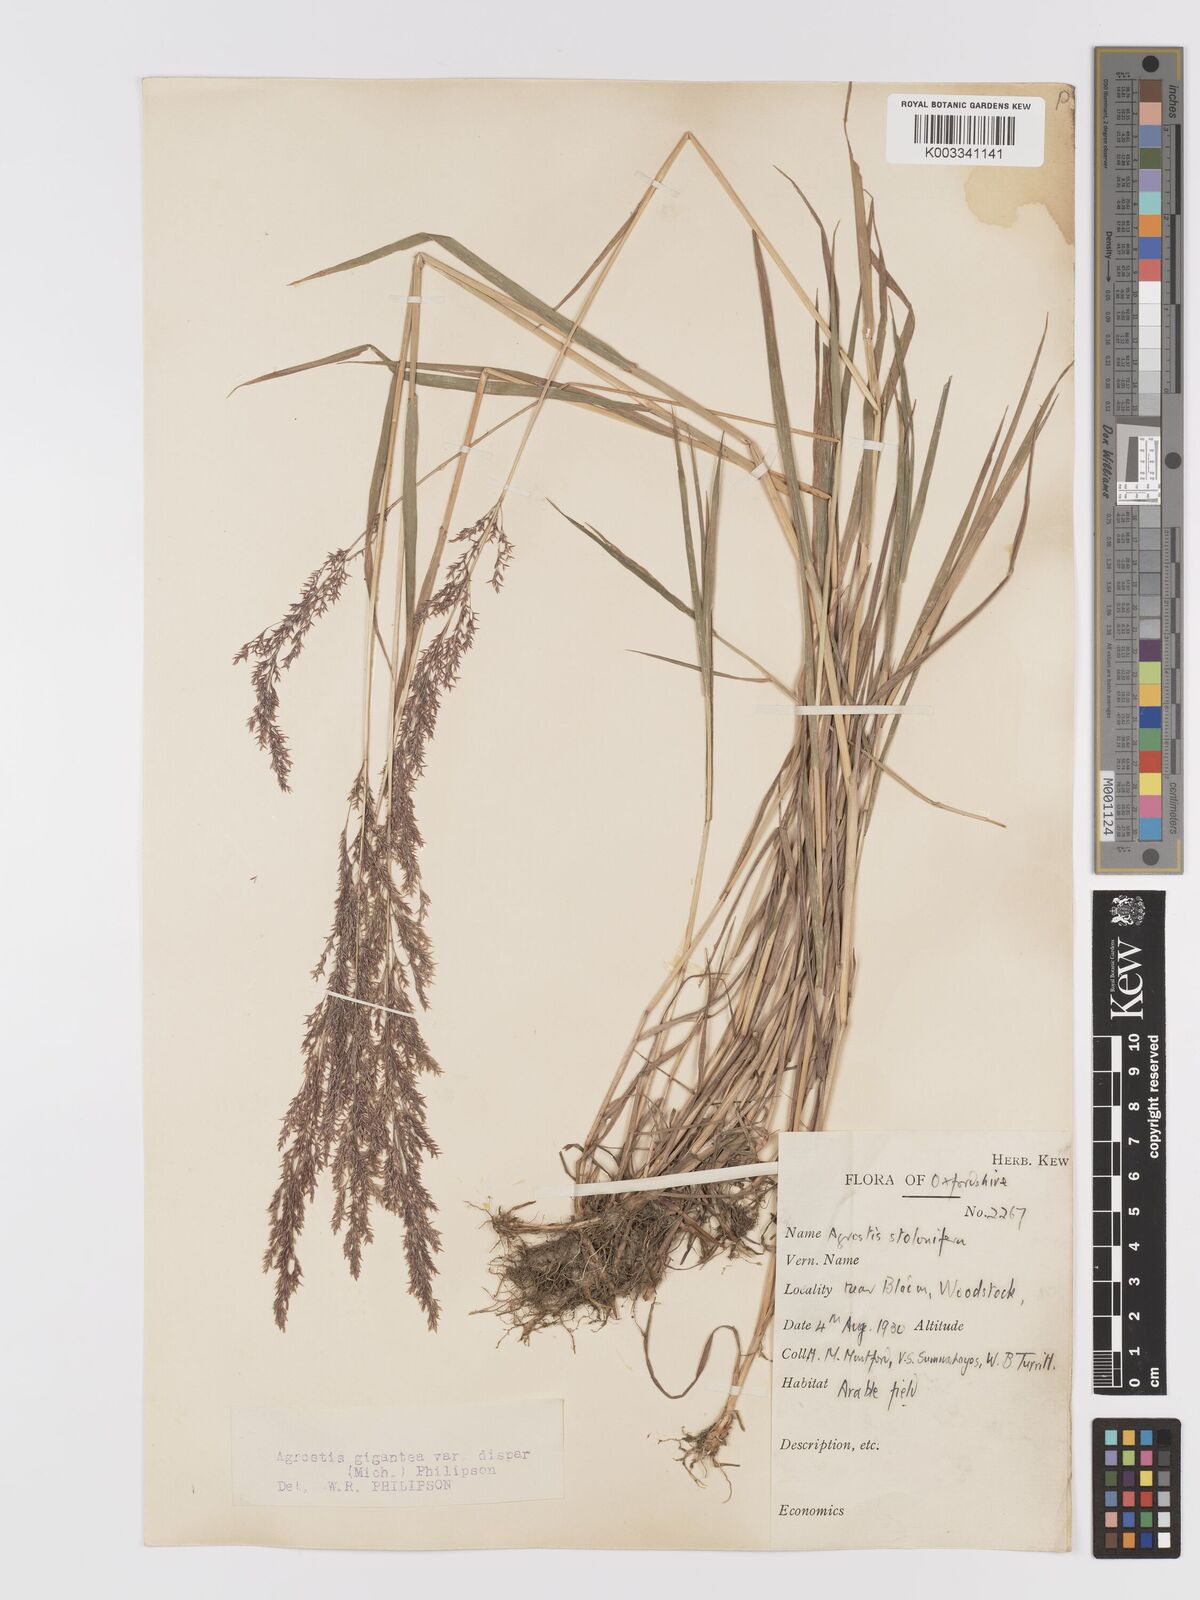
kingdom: Plantae
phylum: Tracheophyta
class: Liliopsida
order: Poales
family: Poaceae
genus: Agrostis
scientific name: Agrostis gigantea
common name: Black bent
